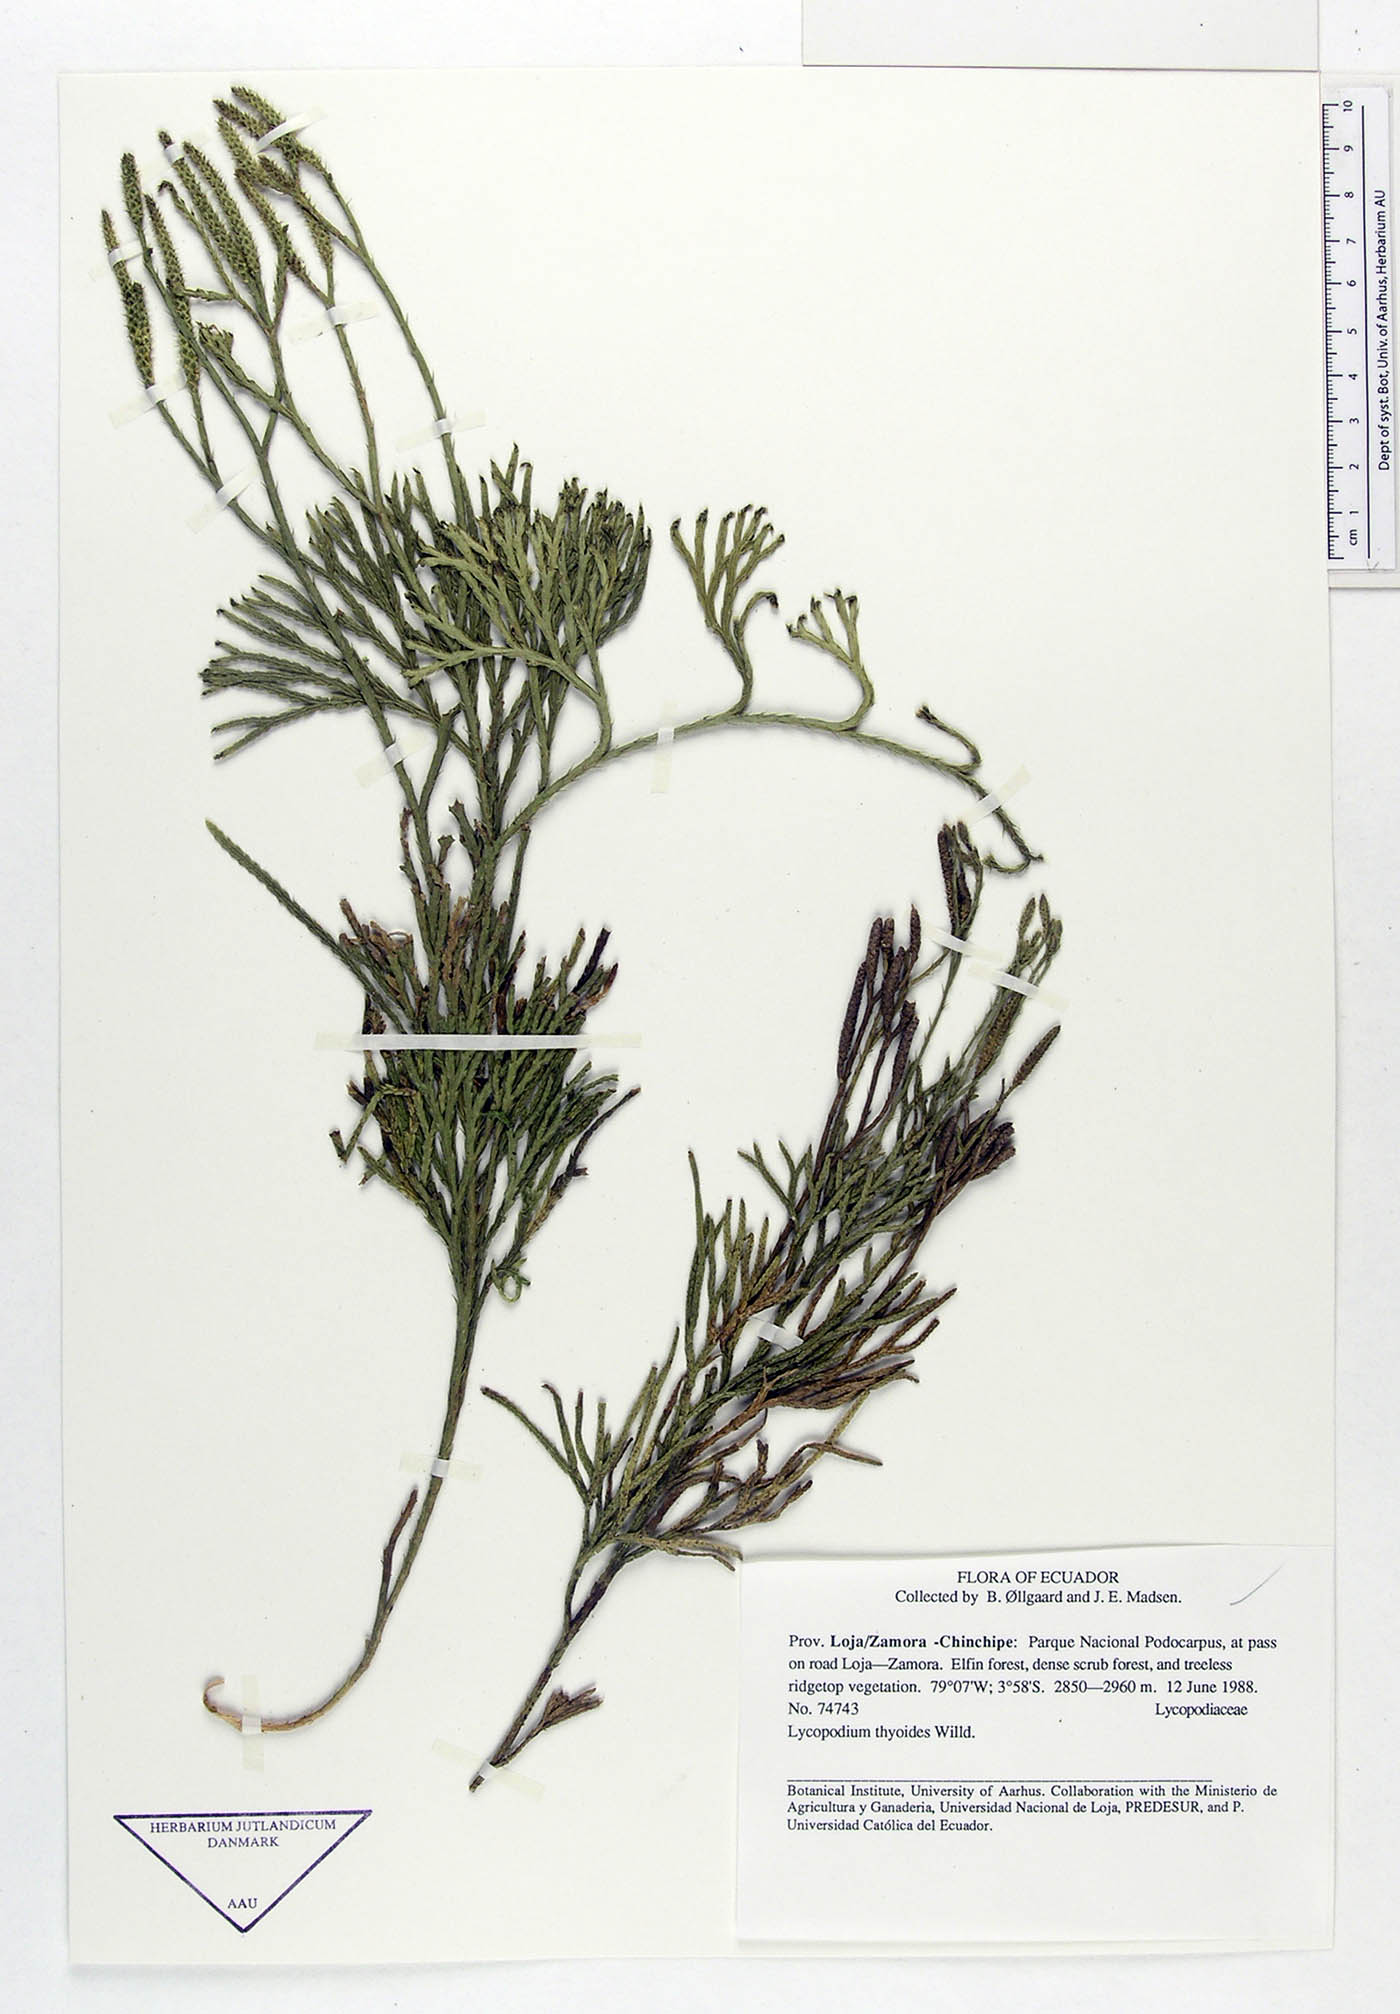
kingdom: Plantae
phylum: Tracheophyta
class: Lycopodiopsida
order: Lycopodiales
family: Lycopodiaceae
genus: Diphasiastrum
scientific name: Diphasiastrum thyoides
